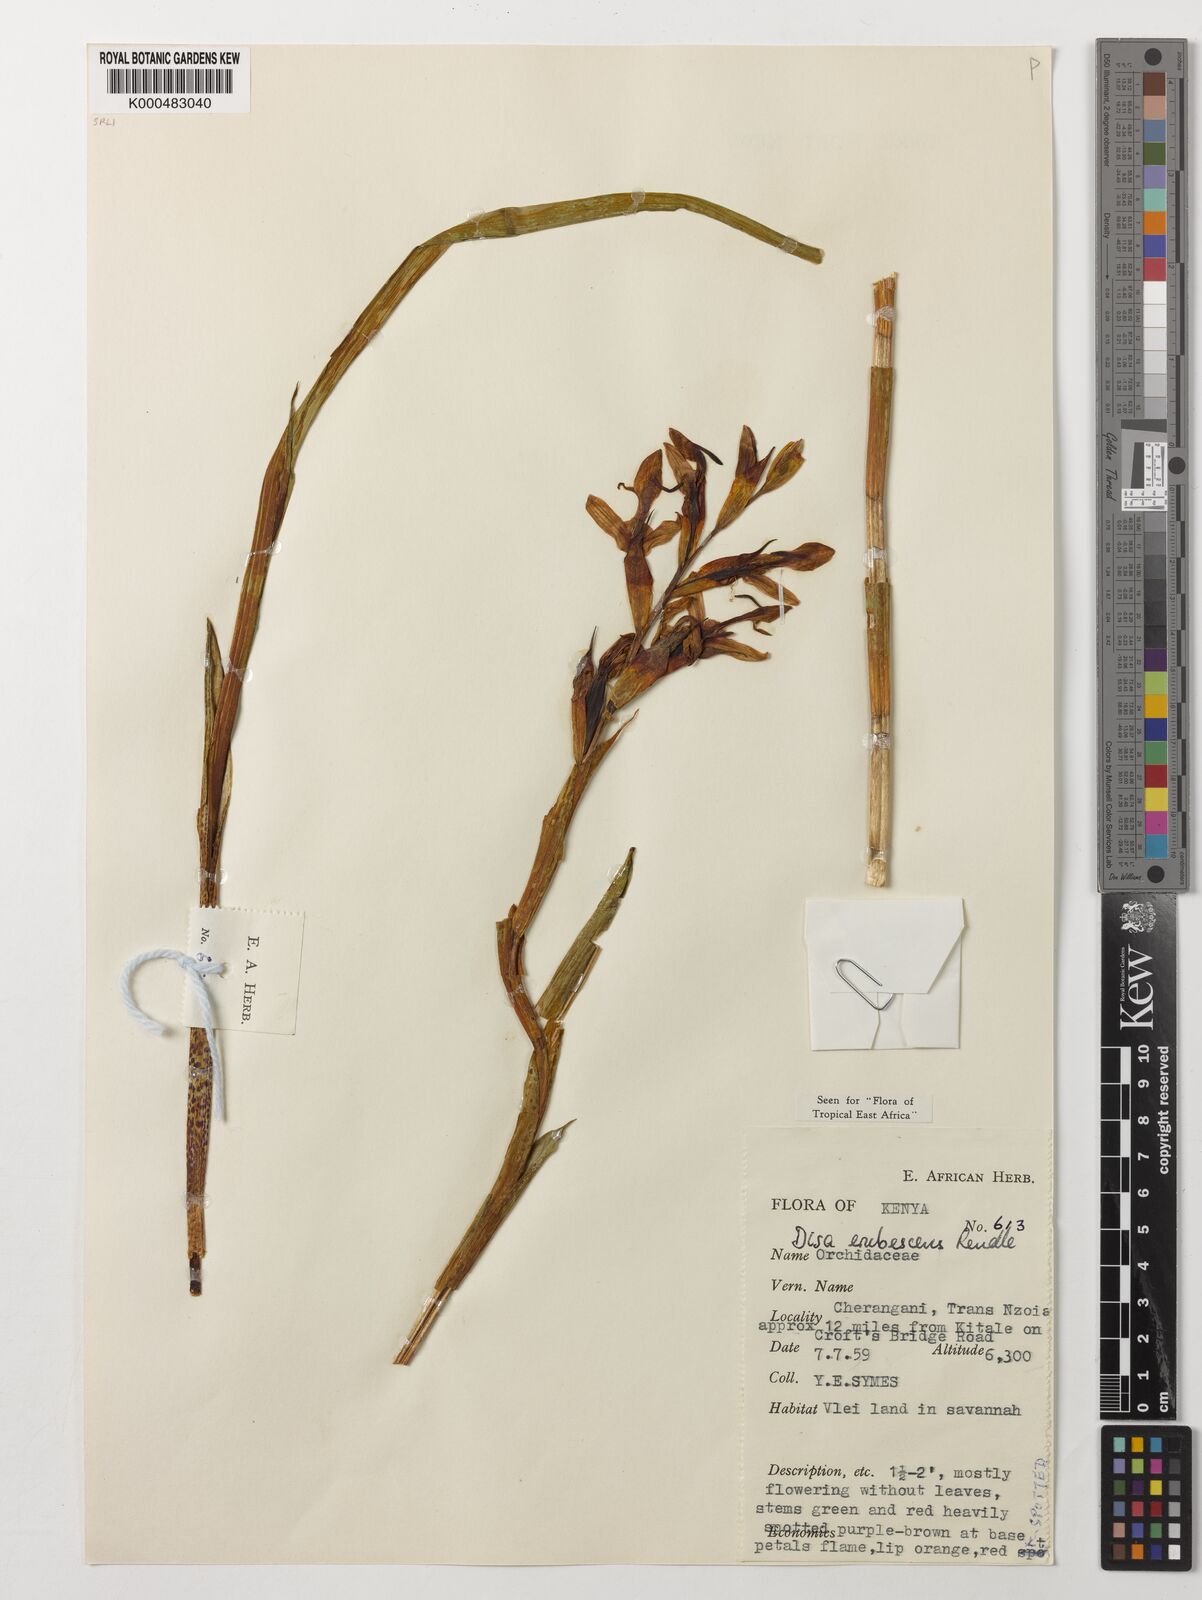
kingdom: Plantae
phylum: Tracheophyta
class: Liliopsida
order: Asparagales
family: Orchidaceae
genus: Disa
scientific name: Disa erubescens
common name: The rose disa
